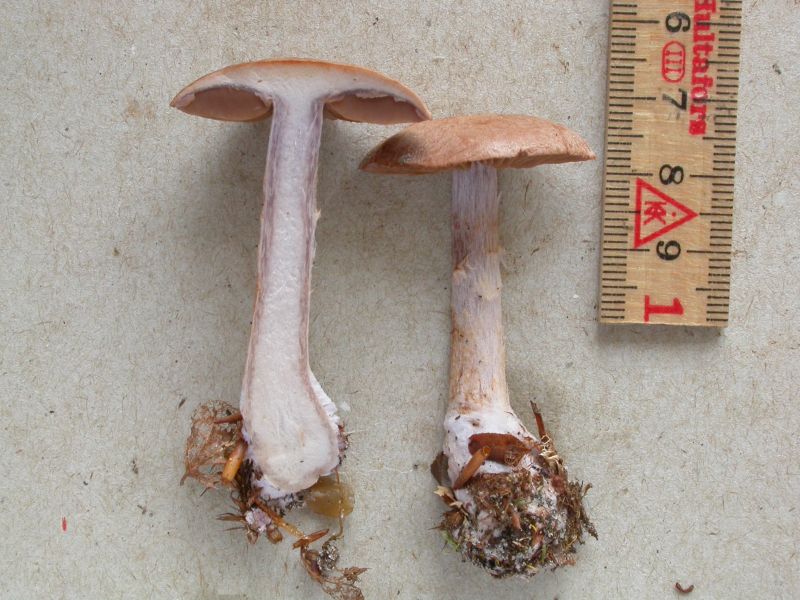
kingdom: Fungi
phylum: Basidiomycota
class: Agaricomycetes
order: Agaricales
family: Cortinariaceae
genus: Cortinarius
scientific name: Cortinarius simulatus
